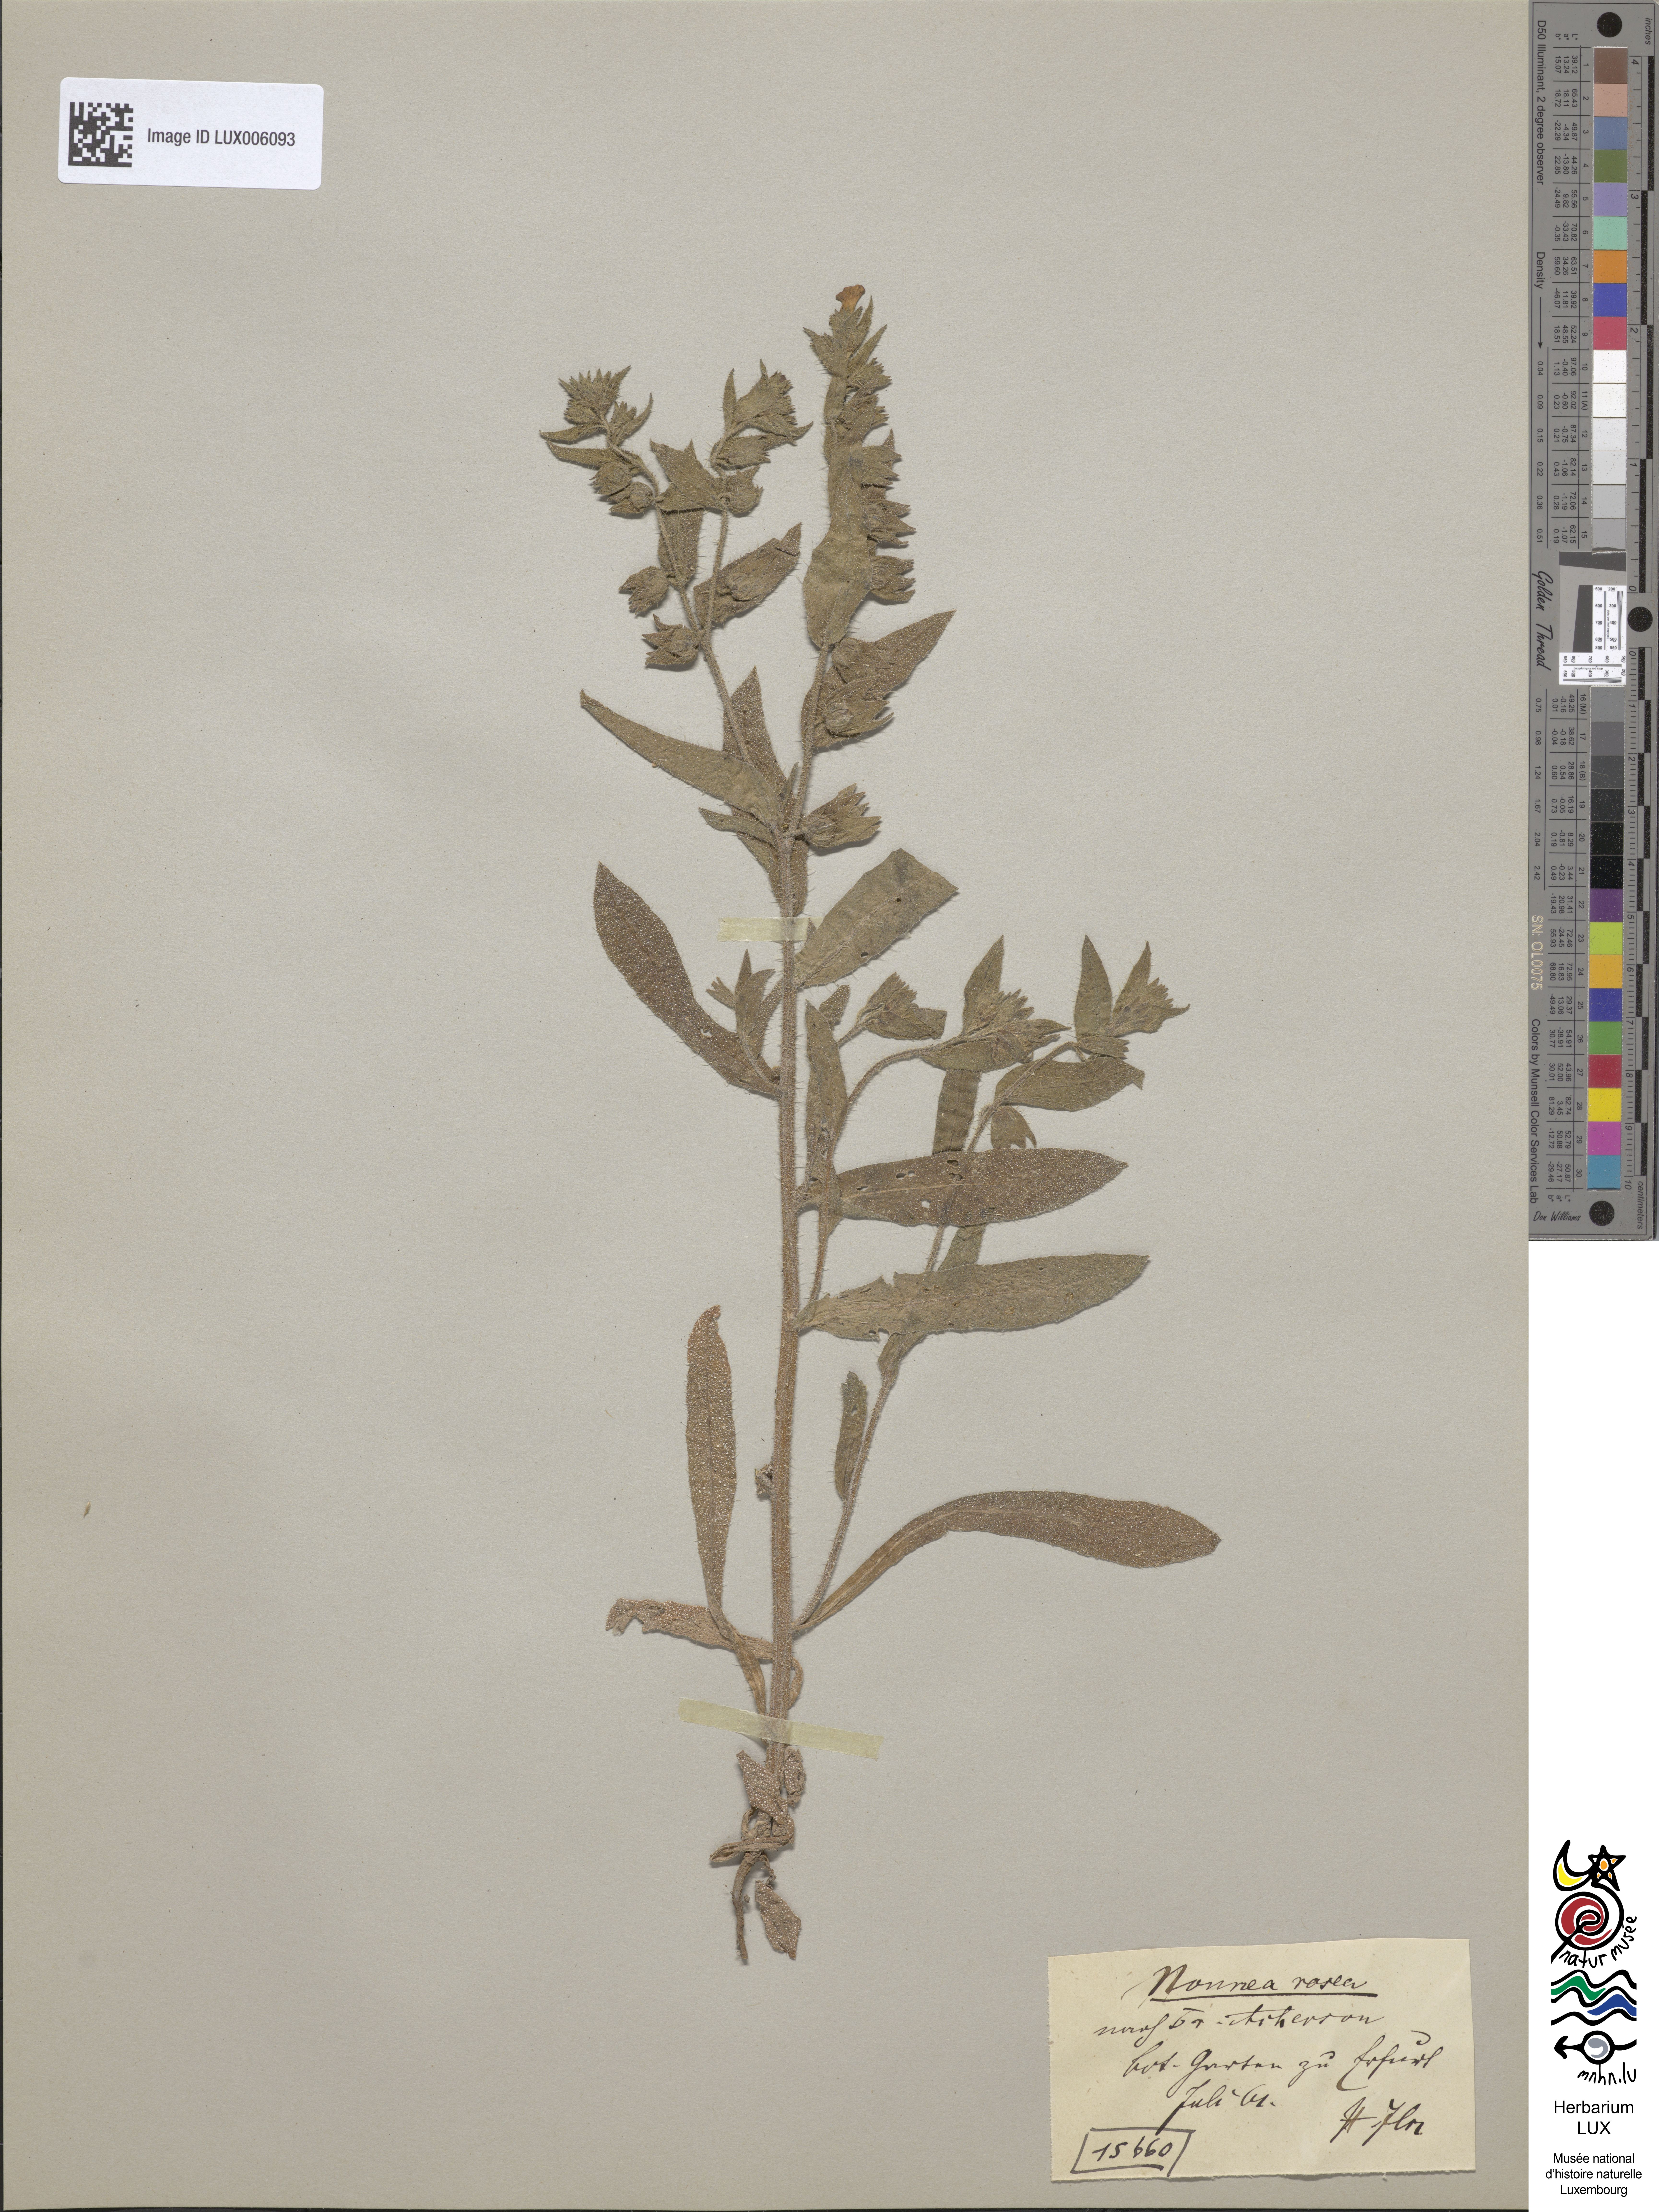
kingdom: Plantae
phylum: Tracheophyta
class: Magnoliopsida
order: Boraginales
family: Boraginaceae
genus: Nonea
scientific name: Nonea rosea
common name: Pink nonea
